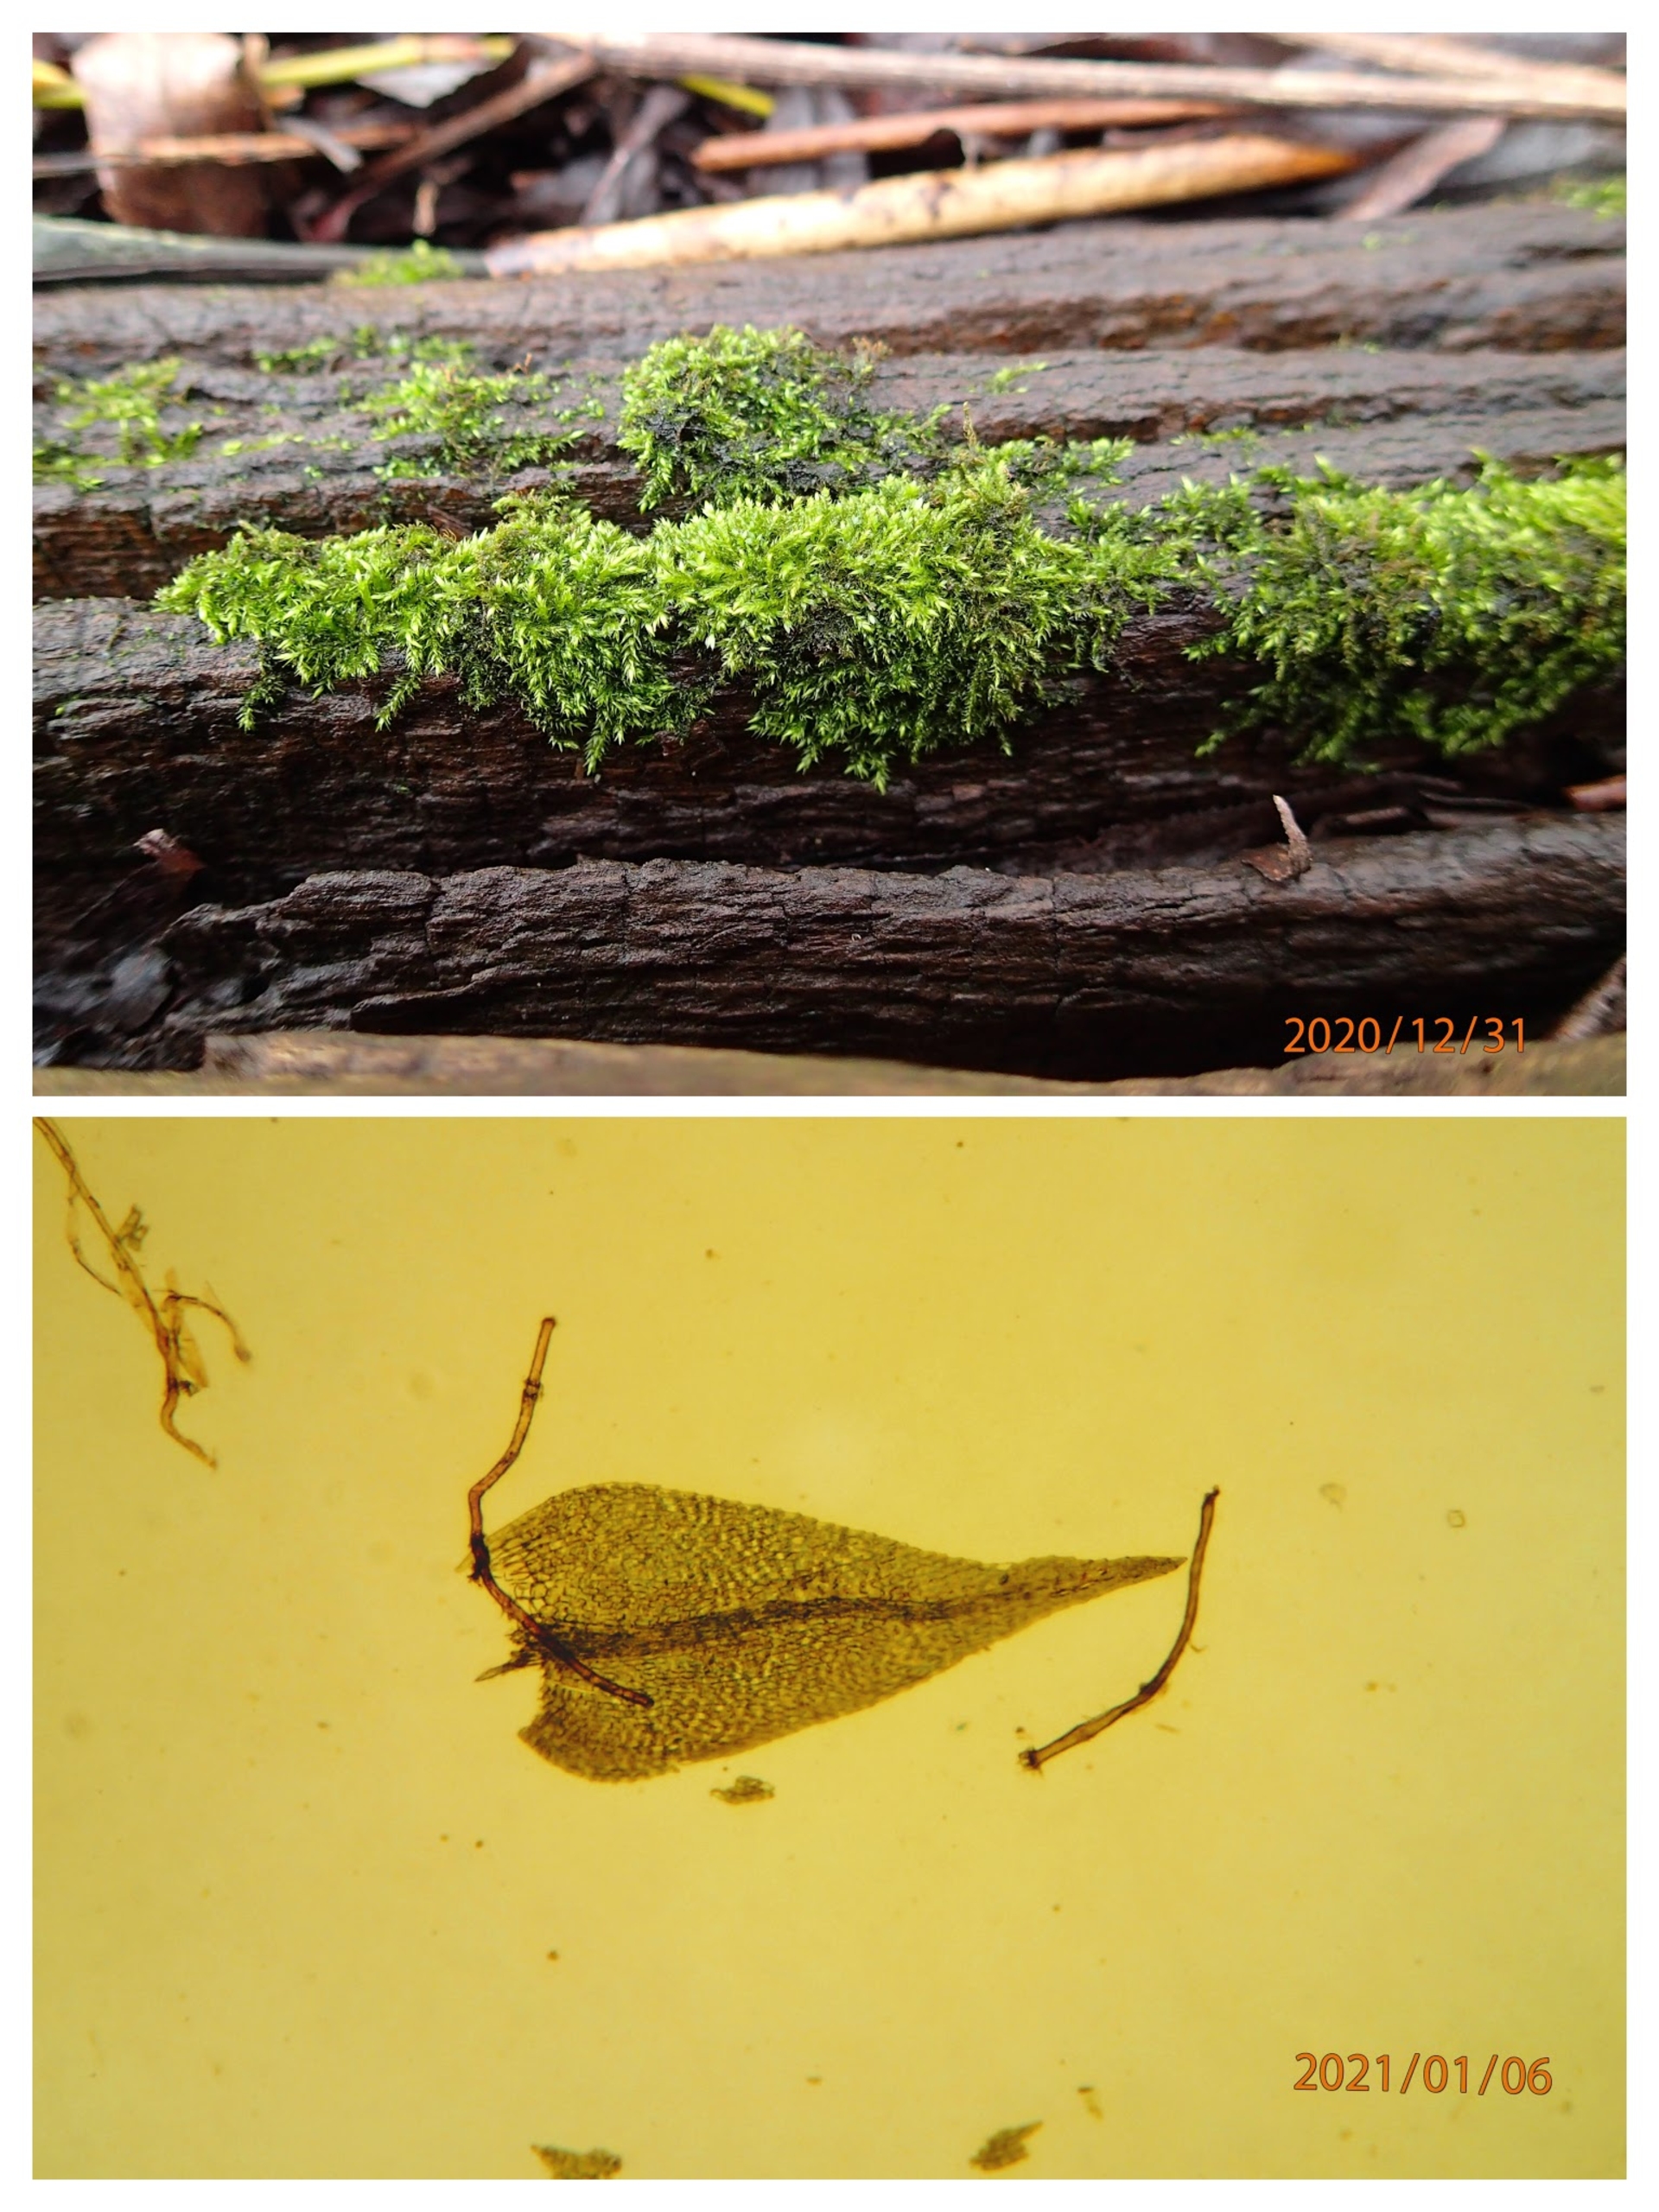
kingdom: Plantae
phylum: Bryophyta
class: Bryopsida
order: Hypnales
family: Amblystegiaceae
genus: Hygroamblystegium
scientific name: Hygroamblystegium varium
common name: Bugtet vandkrybmos
